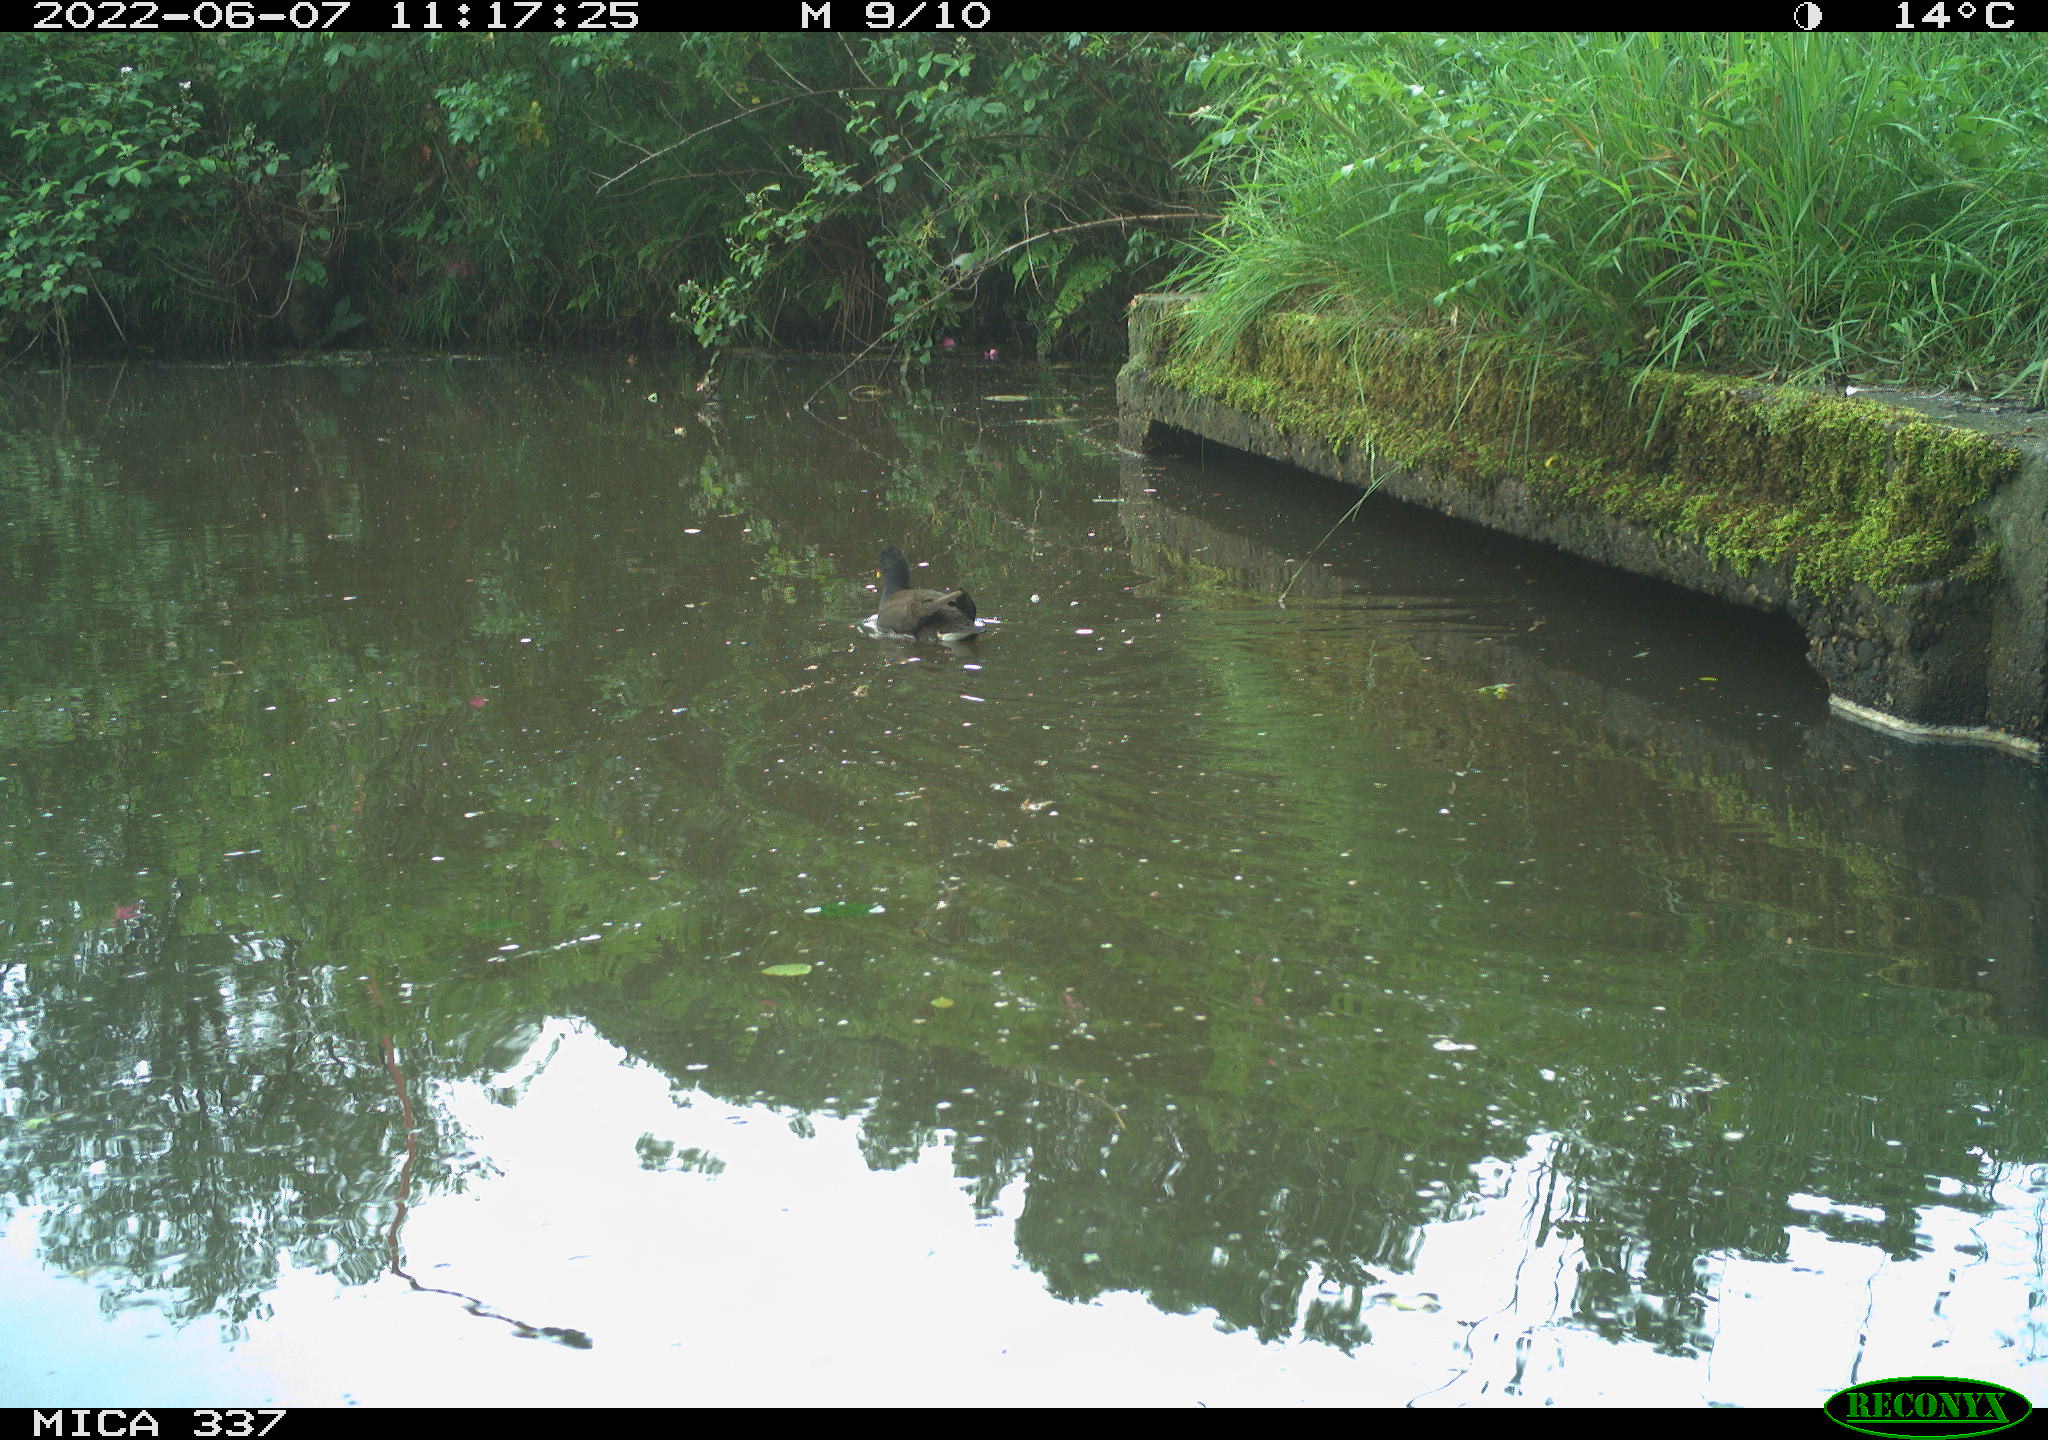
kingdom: Animalia
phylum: Chordata
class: Aves
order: Gruiformes
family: Rallidae
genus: Gallinula
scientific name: Gallinula chloropus
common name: Common moorhen
